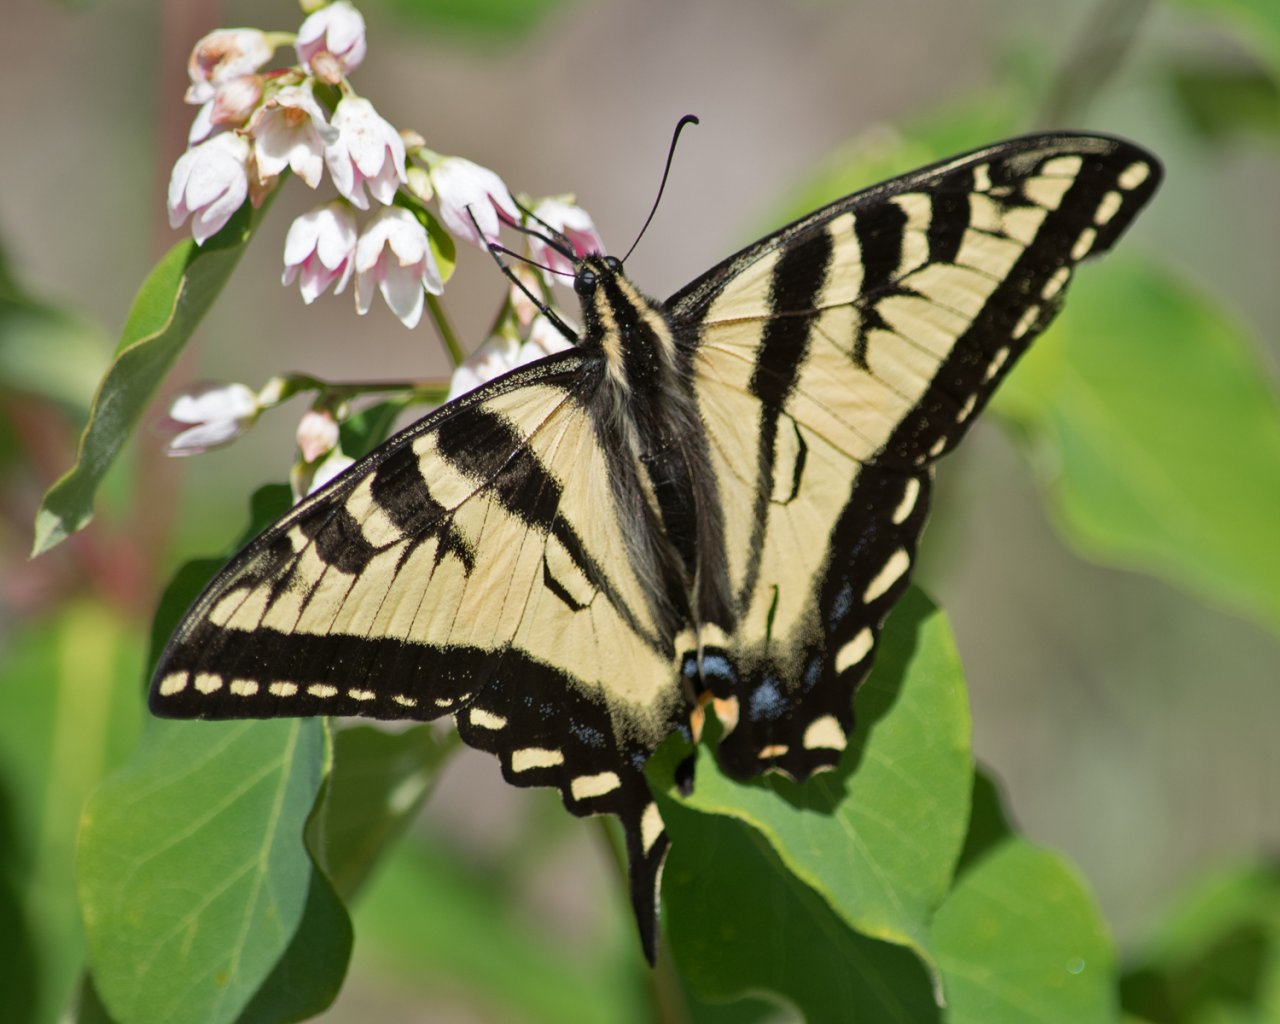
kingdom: Animalia
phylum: Arthropoda
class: Insecta
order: Lepidoptera
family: Papilionidae
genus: Pterourus
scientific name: Pterourus rutulus
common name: Western Tiger Swallowtail
